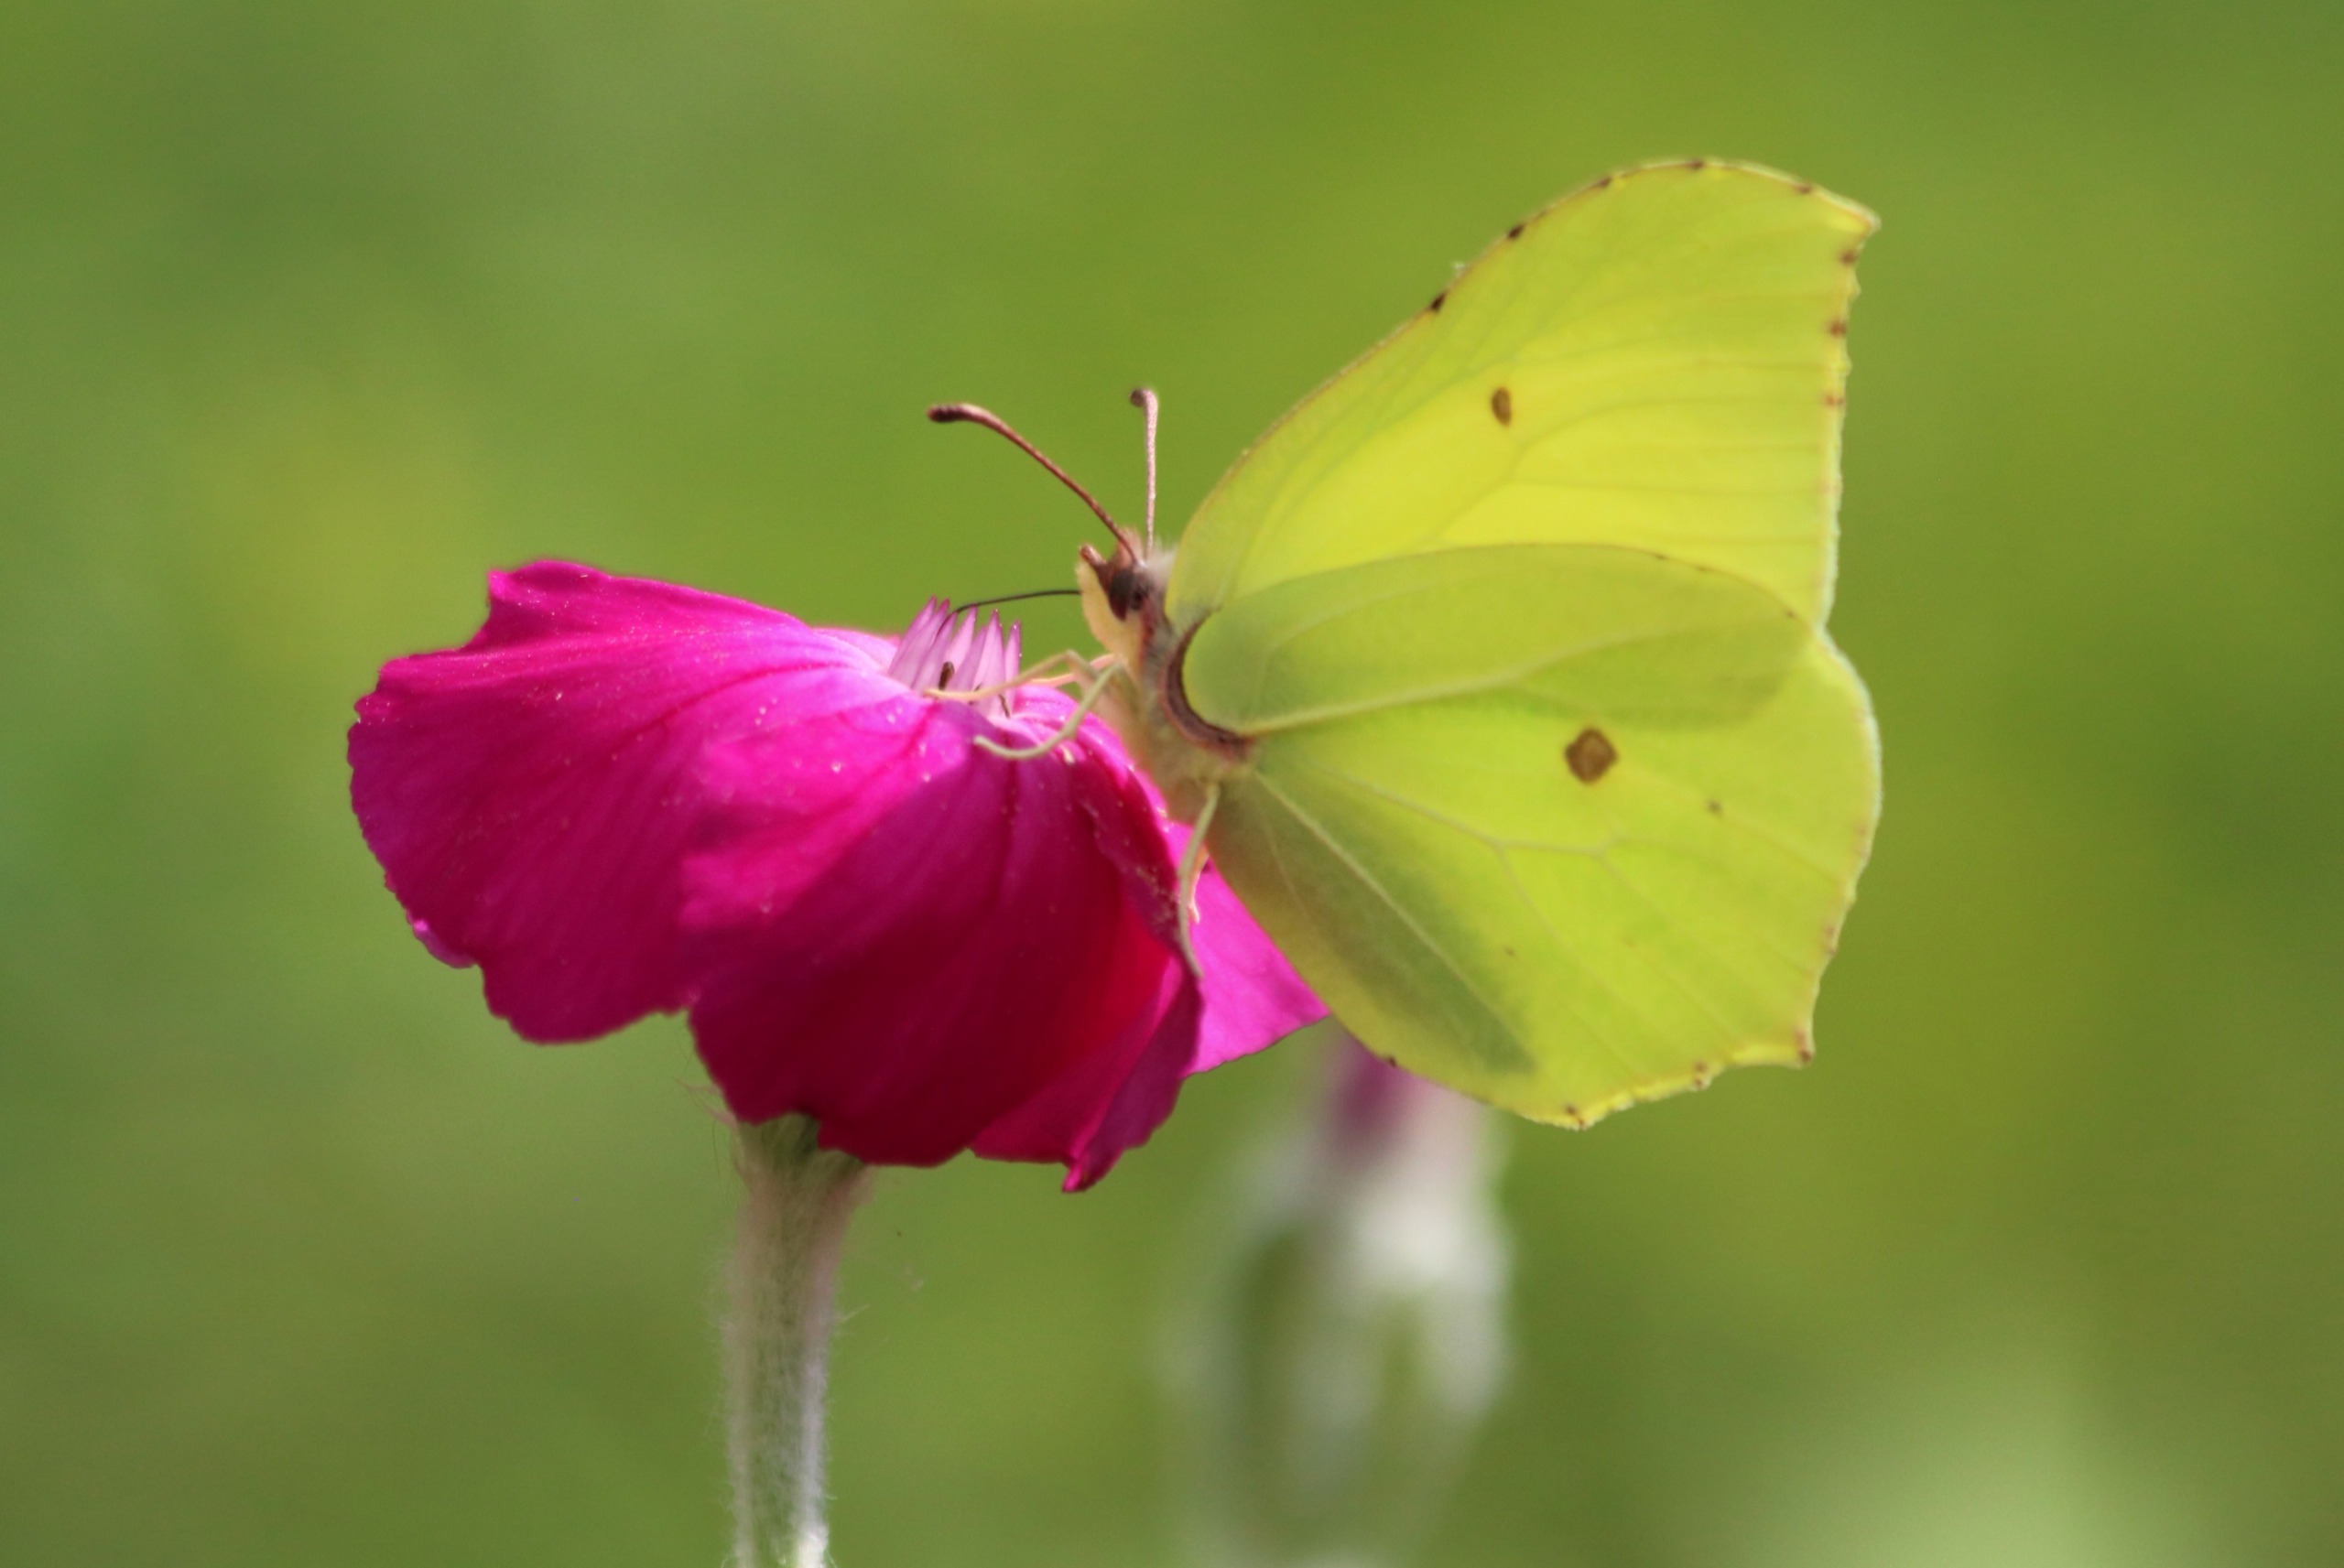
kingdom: Animalia
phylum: Arthropoda
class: Insecta
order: Lepidoptera
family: Pieridae
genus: Gonepteryx
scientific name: Gonepteryx rhamni
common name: Citronsommerfugl
